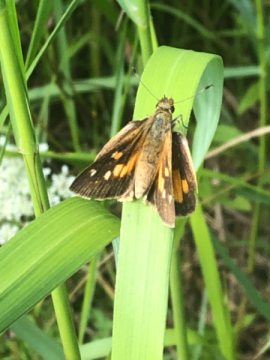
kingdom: Animalia
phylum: Arthropoda
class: Insecta
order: Lepidoptera
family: Hesperiidae
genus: Poanes
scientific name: Poanes viator
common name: Broad-winged Skipper
